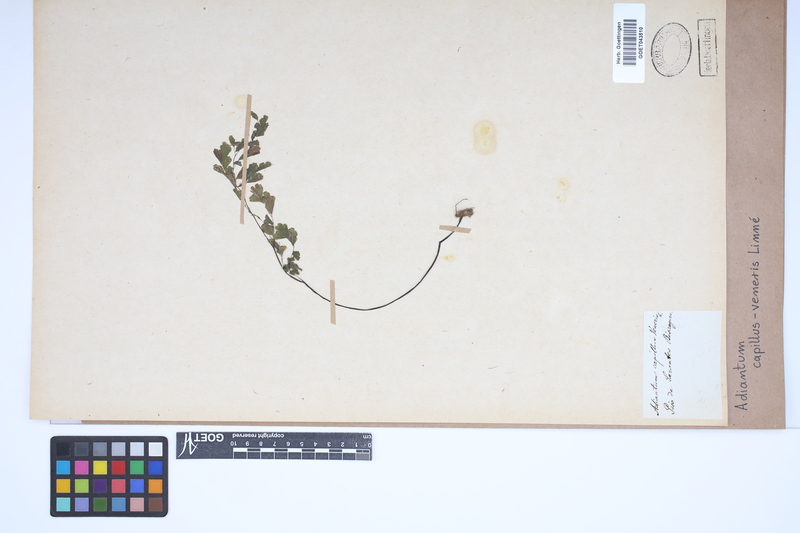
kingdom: Plantae
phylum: Tracheophyta
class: Polypodiopsida
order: Polypodiales
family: Pteridaceae
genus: Adiantum
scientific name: Adiantum capillus-veneris
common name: Maidenhair fern
